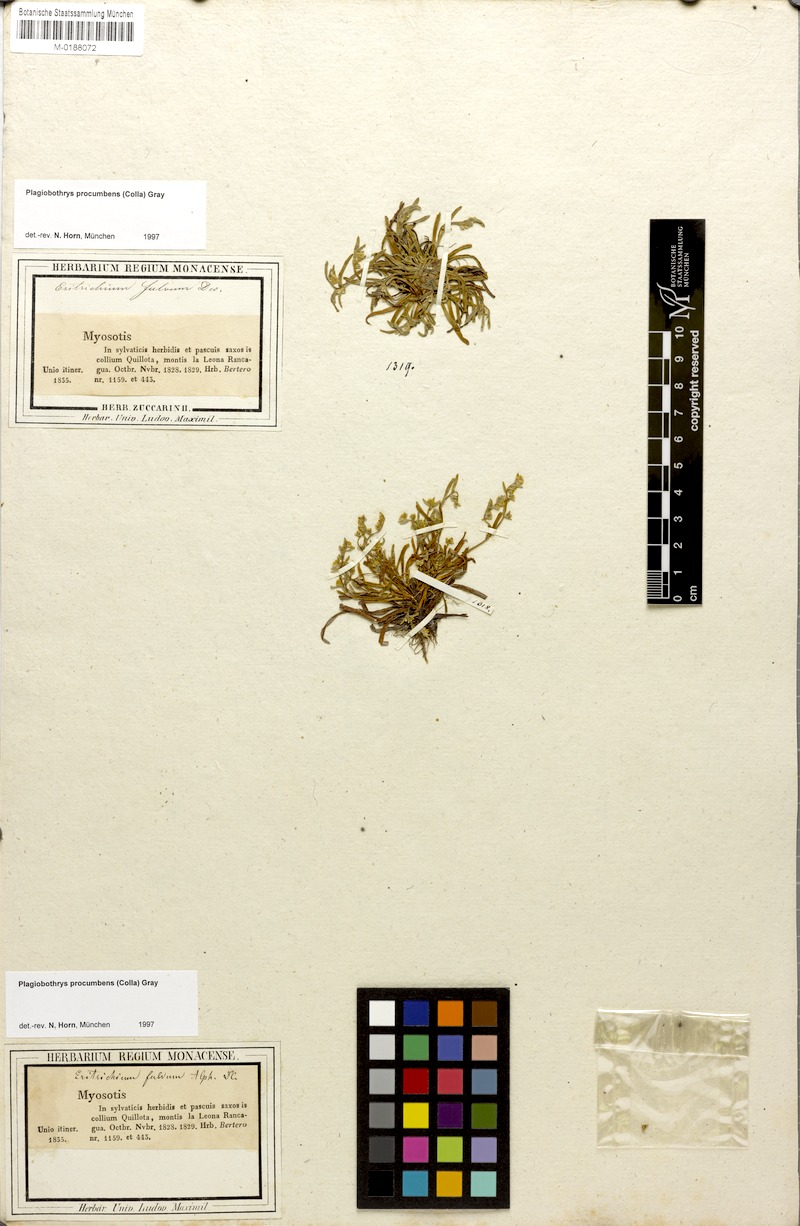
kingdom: Plantae
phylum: Tracheophyta
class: Magnoliopsida
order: Boraginales
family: Boraginaceae
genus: Plagiobothrys
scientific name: Plagiobothrys procumbens
